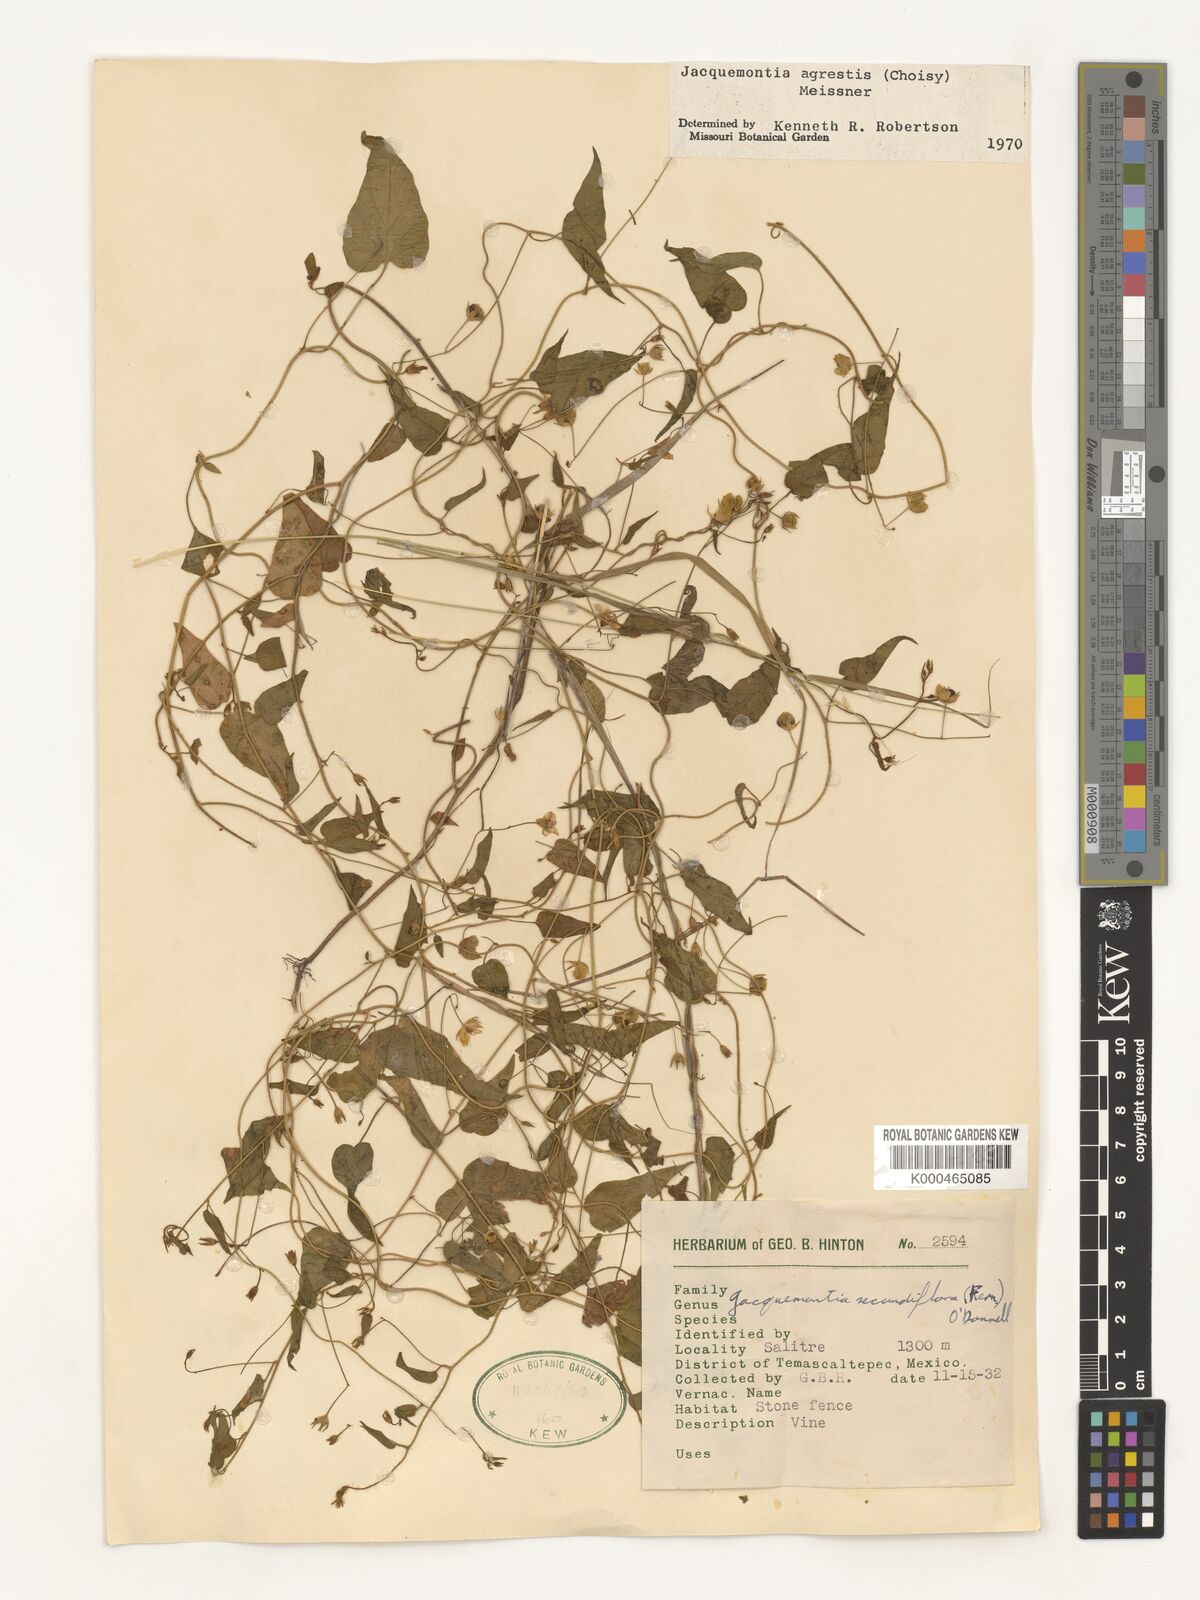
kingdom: Plantae
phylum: Tracheophyta
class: Magnoliopsida
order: Solanales
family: Convolvulaceae
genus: Jacquemontia
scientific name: Jacquemontia agrestis
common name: Midnightblue clustervine
